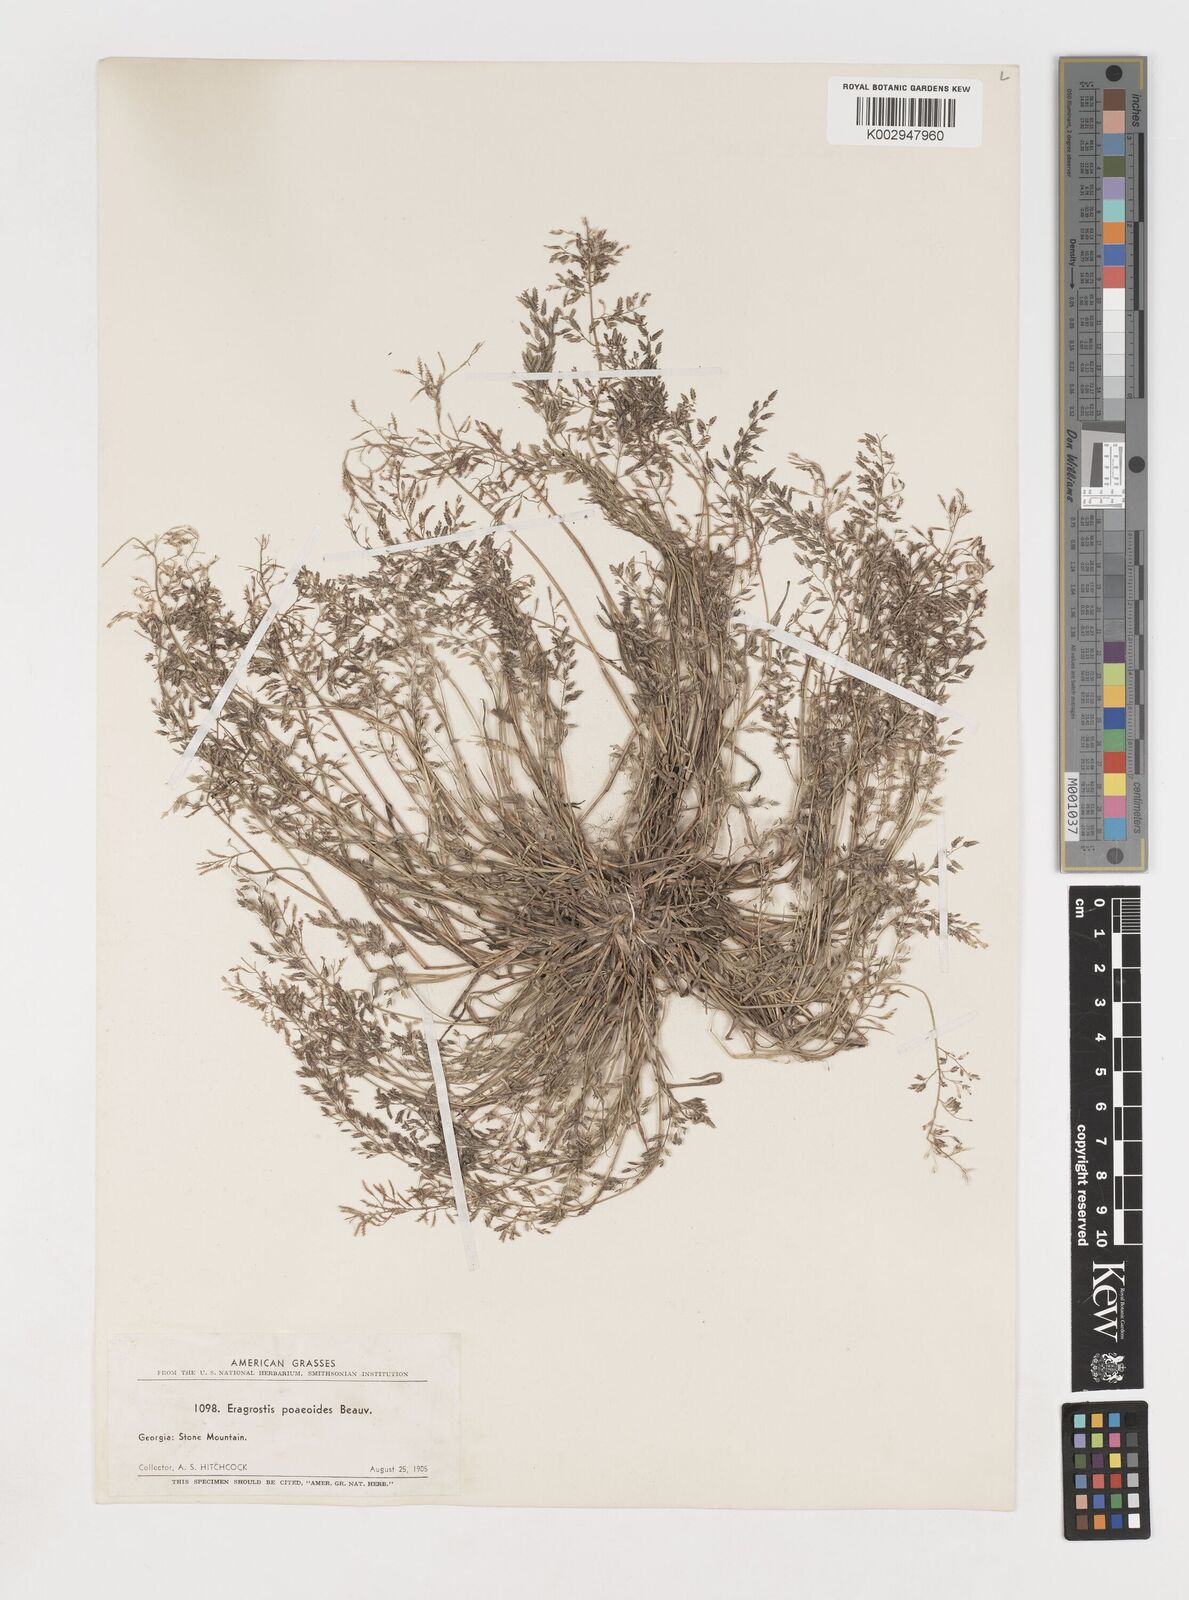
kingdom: Plantae
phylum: Tracheophyta
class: Liliopsida
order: Poales
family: Poaceae
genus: Eragrostis
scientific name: Eragrostis
